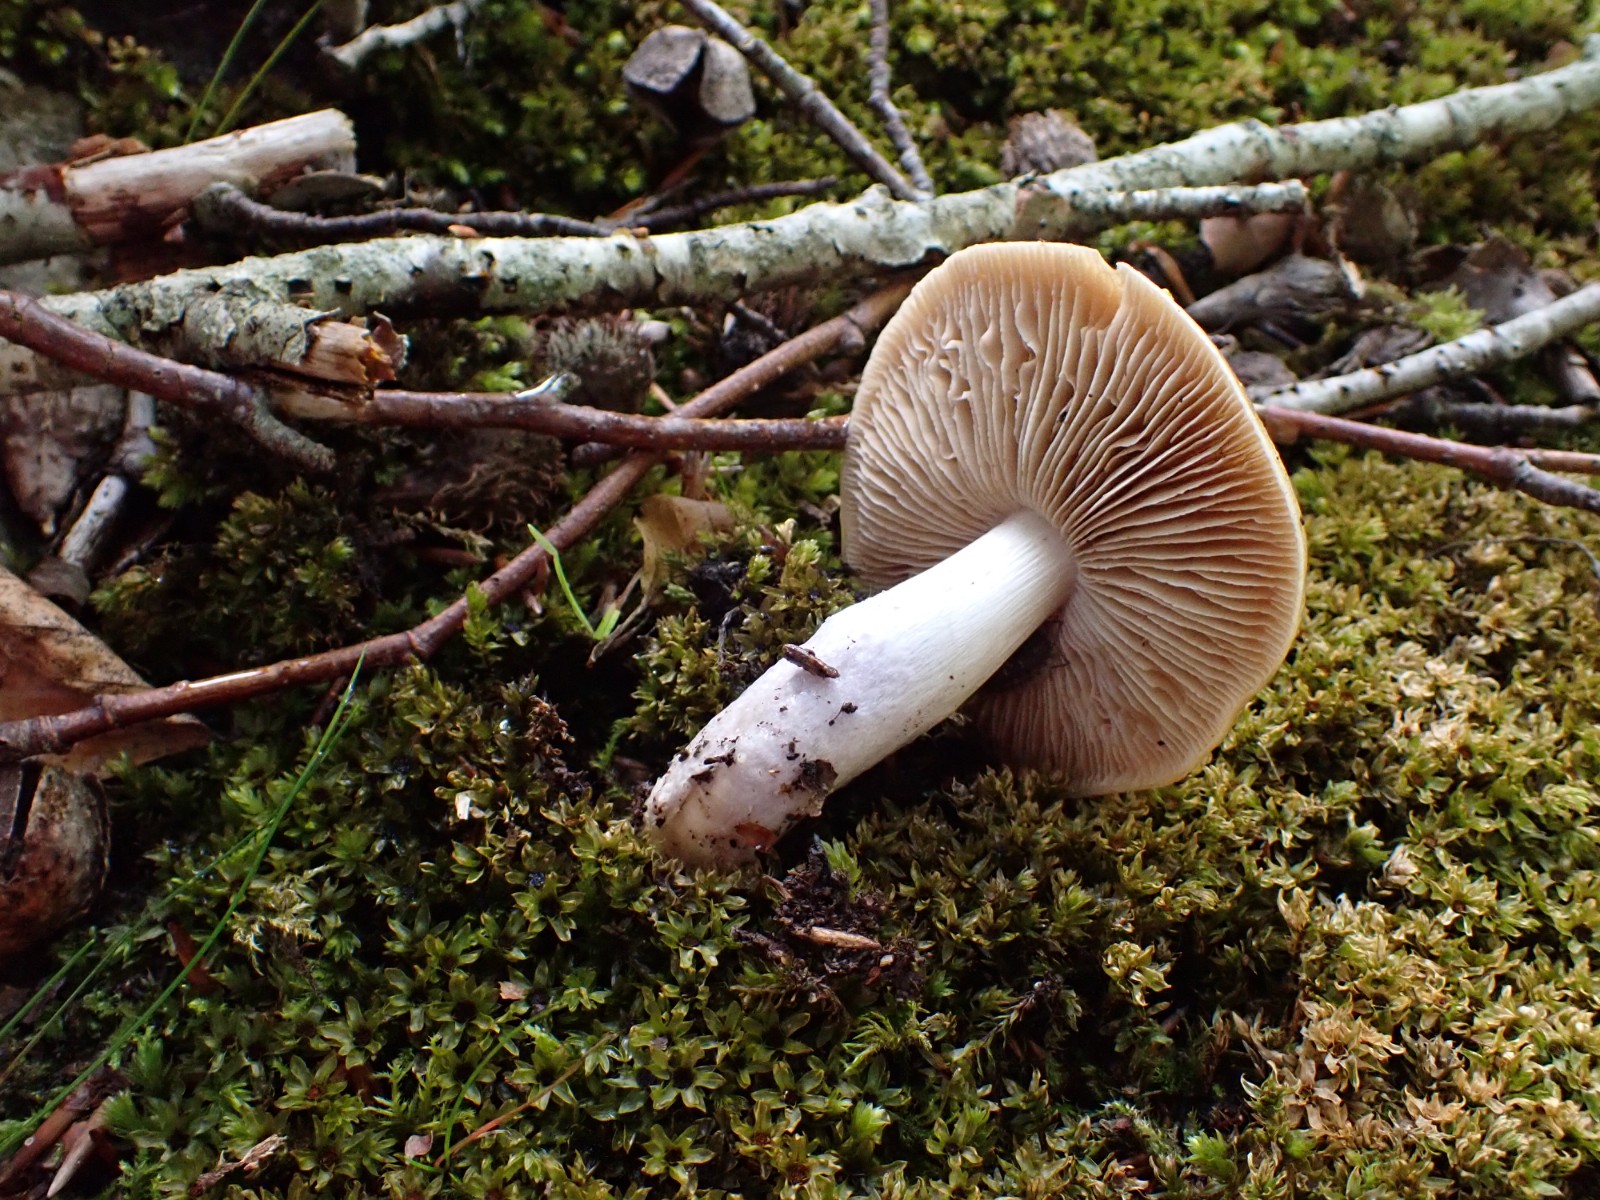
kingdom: Fungi
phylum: Basidiomycota
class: Agaricomycetes
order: Agaricales
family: Cortinariaceae
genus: Cortinarius
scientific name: Cortinarius elatior
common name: høj slørhat
